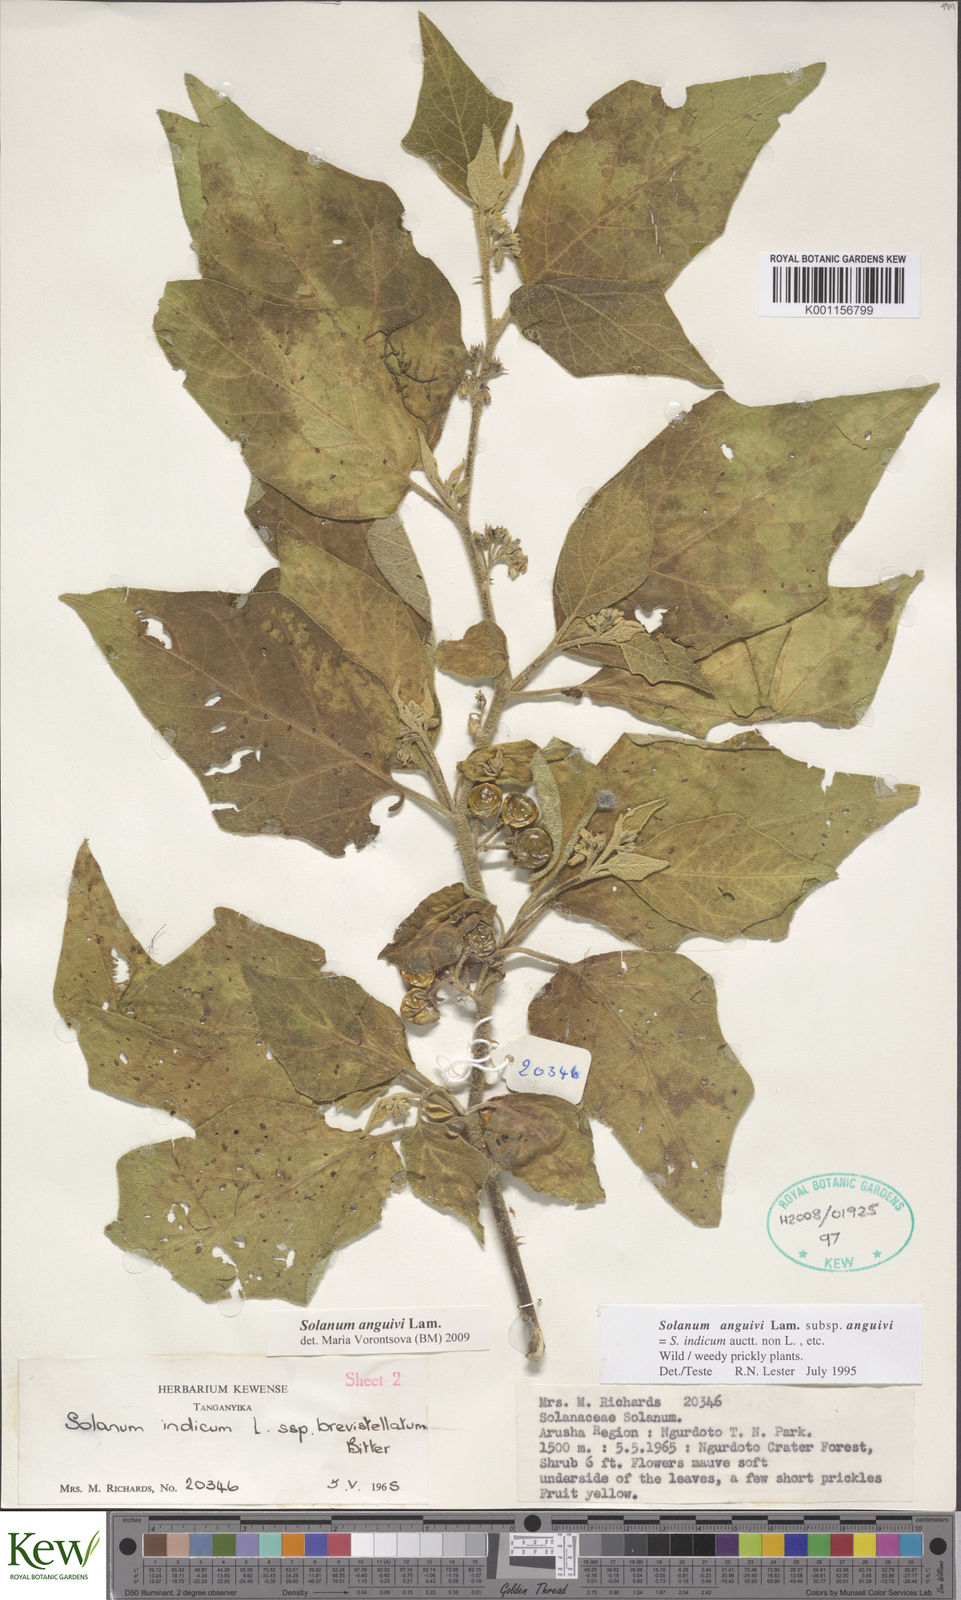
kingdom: Plantae
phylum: Tracheophyta
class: Magnoliopsida
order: Solanales
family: Solanaceae
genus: Solanum
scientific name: Solanum anguivi
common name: Forest bitterberry
